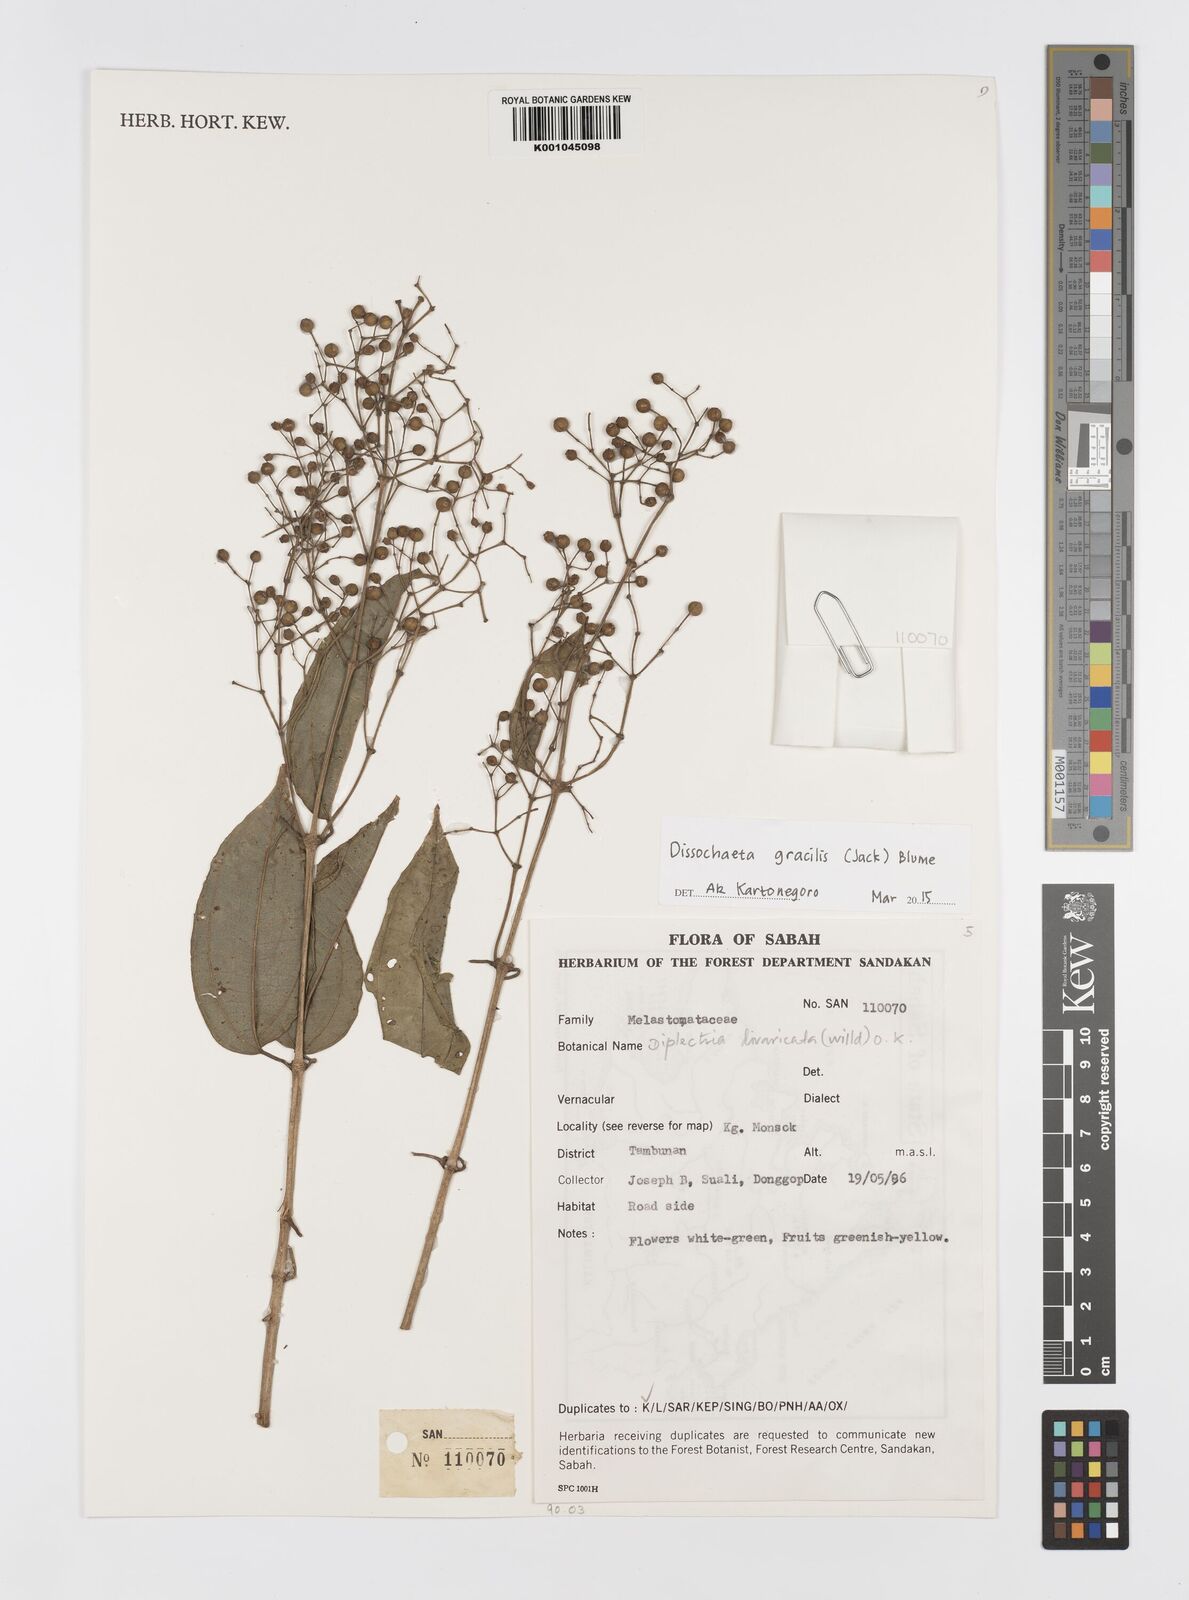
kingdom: Plantae
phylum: Tracheophyta
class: Magnoliopsida
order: Myrtales
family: Melastomataceae
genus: Dissochaeta
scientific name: Dissochaeta gracilis
